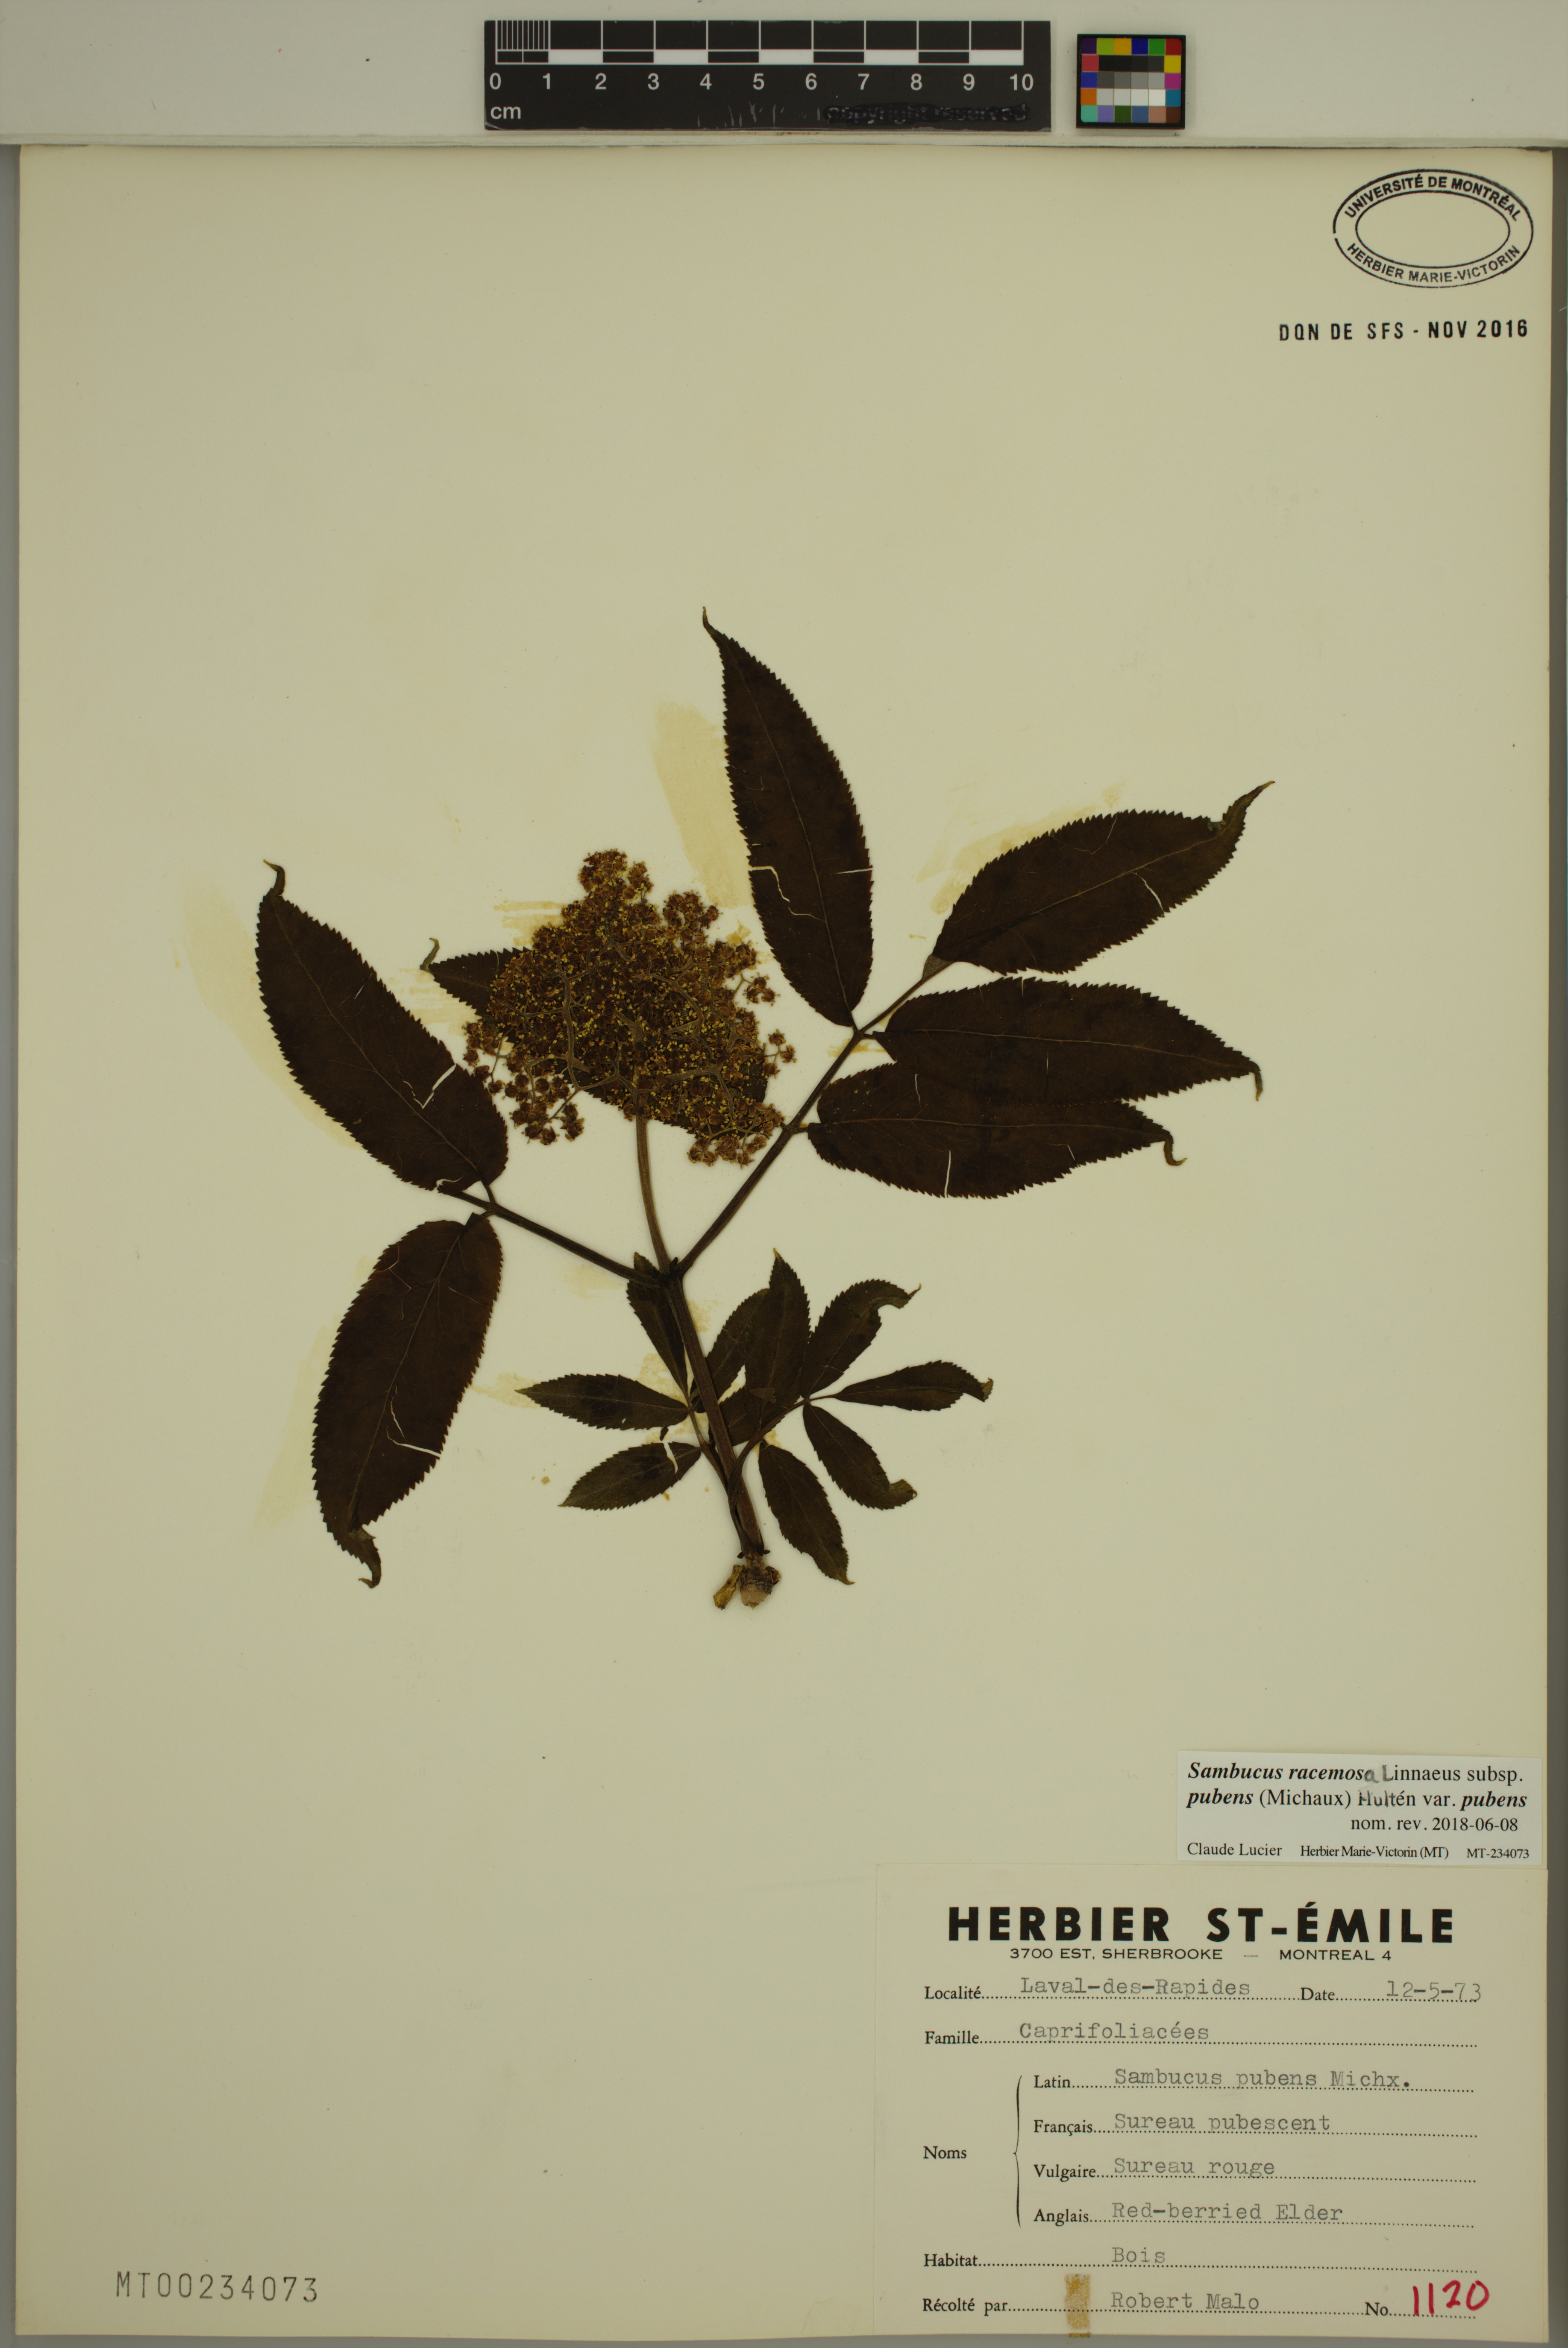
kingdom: Plantae
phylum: Tracheophyta
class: Magnoliopsida
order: Dipsacales
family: Viburnaceae
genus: Sambucus
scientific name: Sambucus racemosa
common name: Red-berried elder
